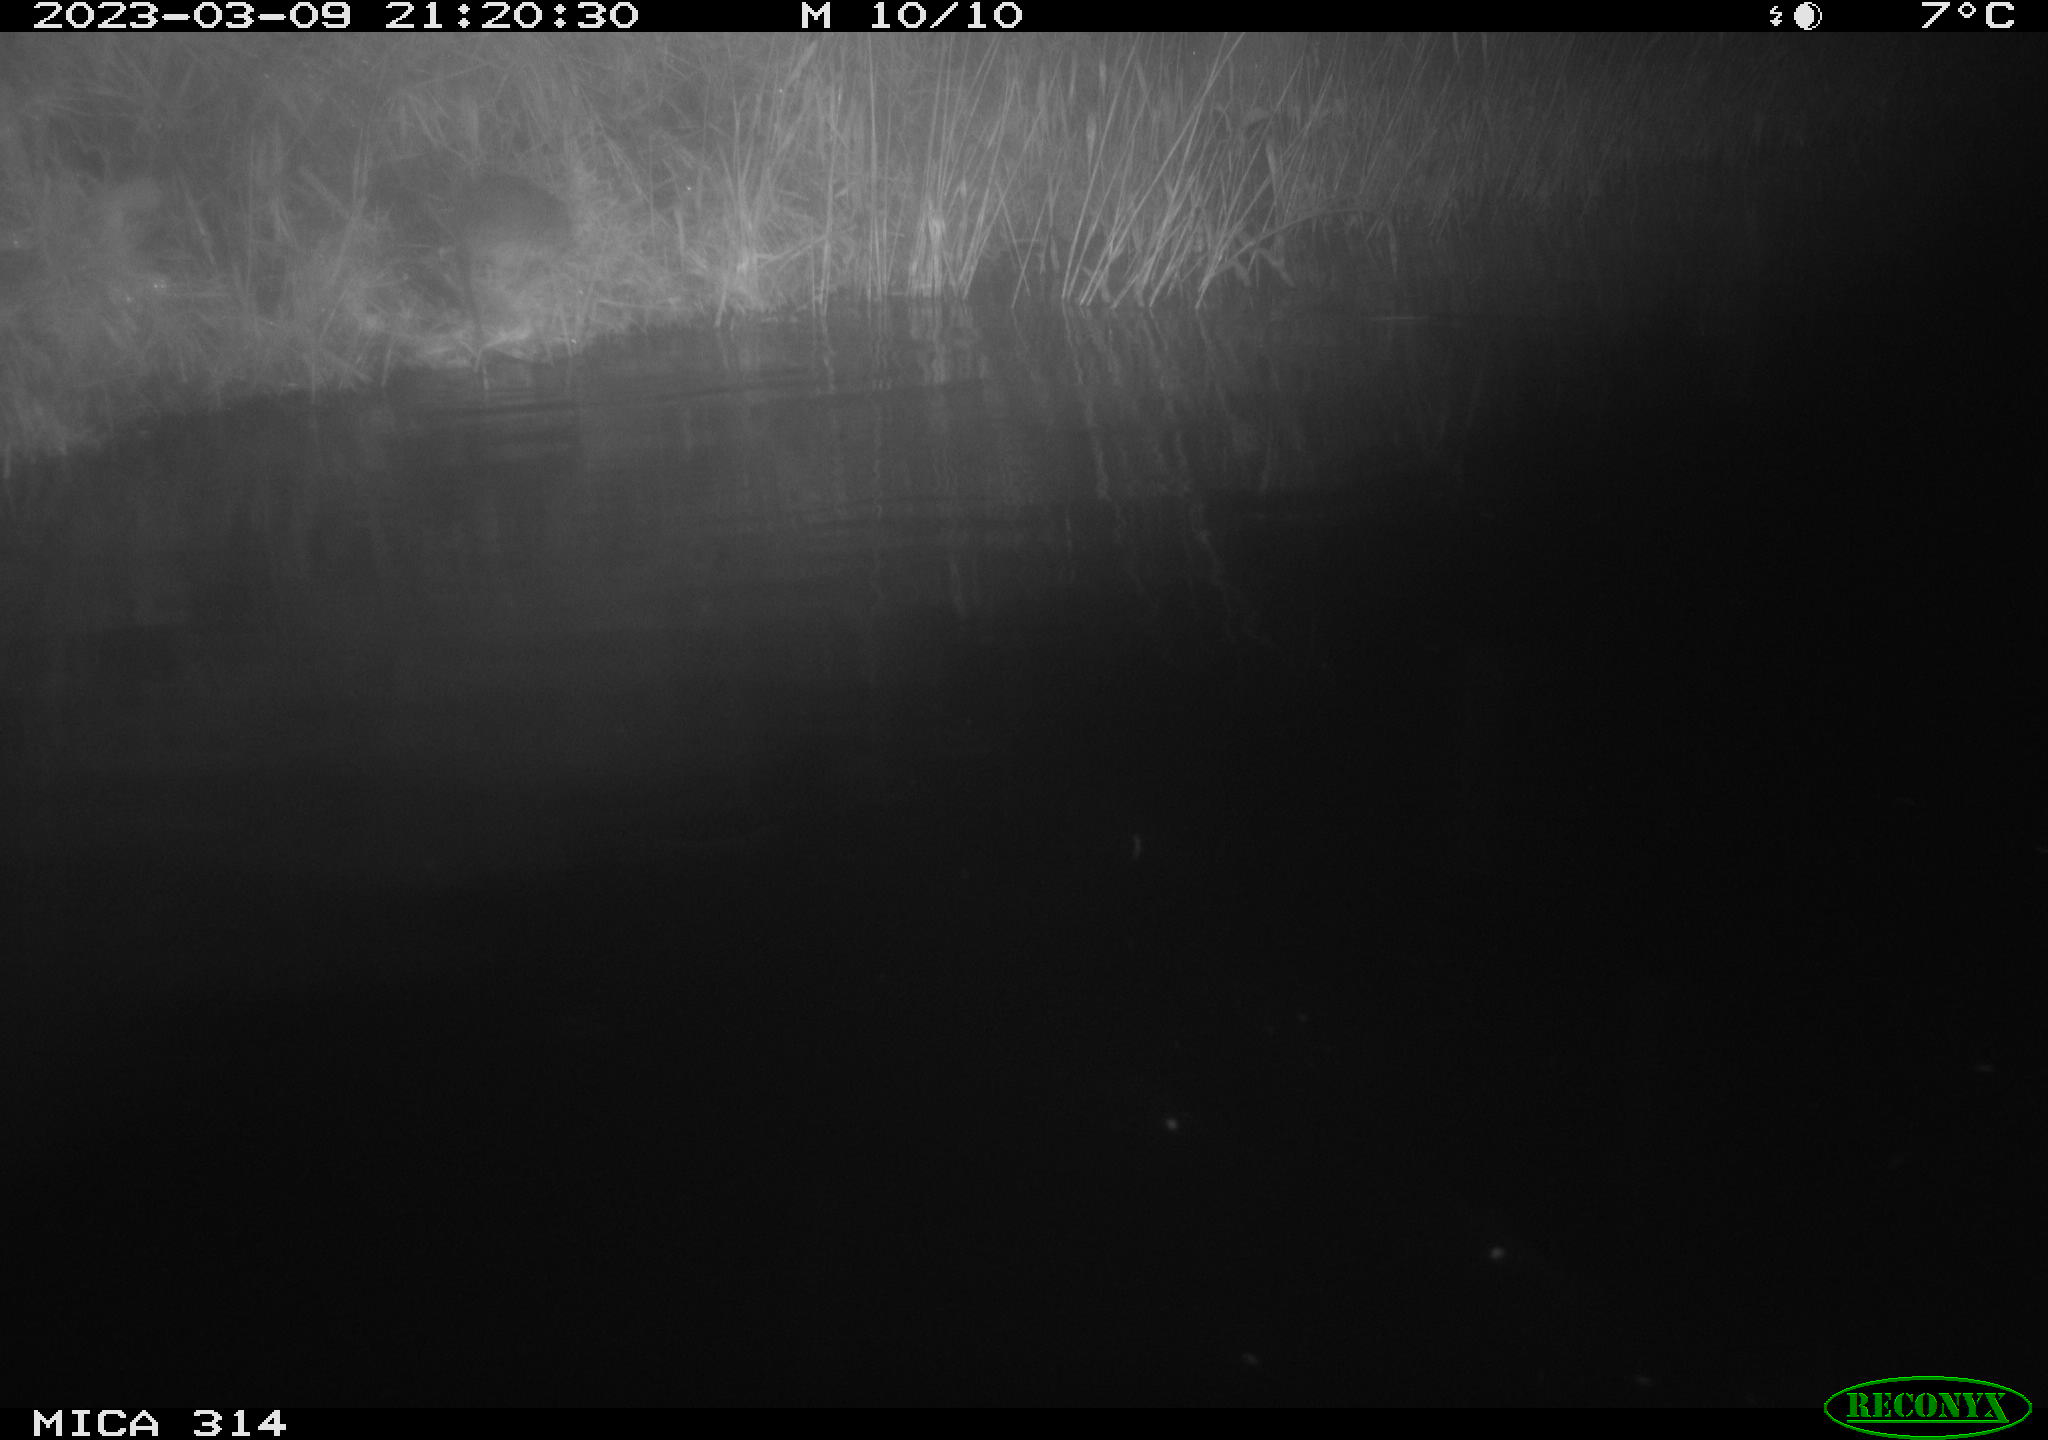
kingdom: Animalia
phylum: Chordata
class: Mammalia
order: Rodentia
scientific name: Rodentia
